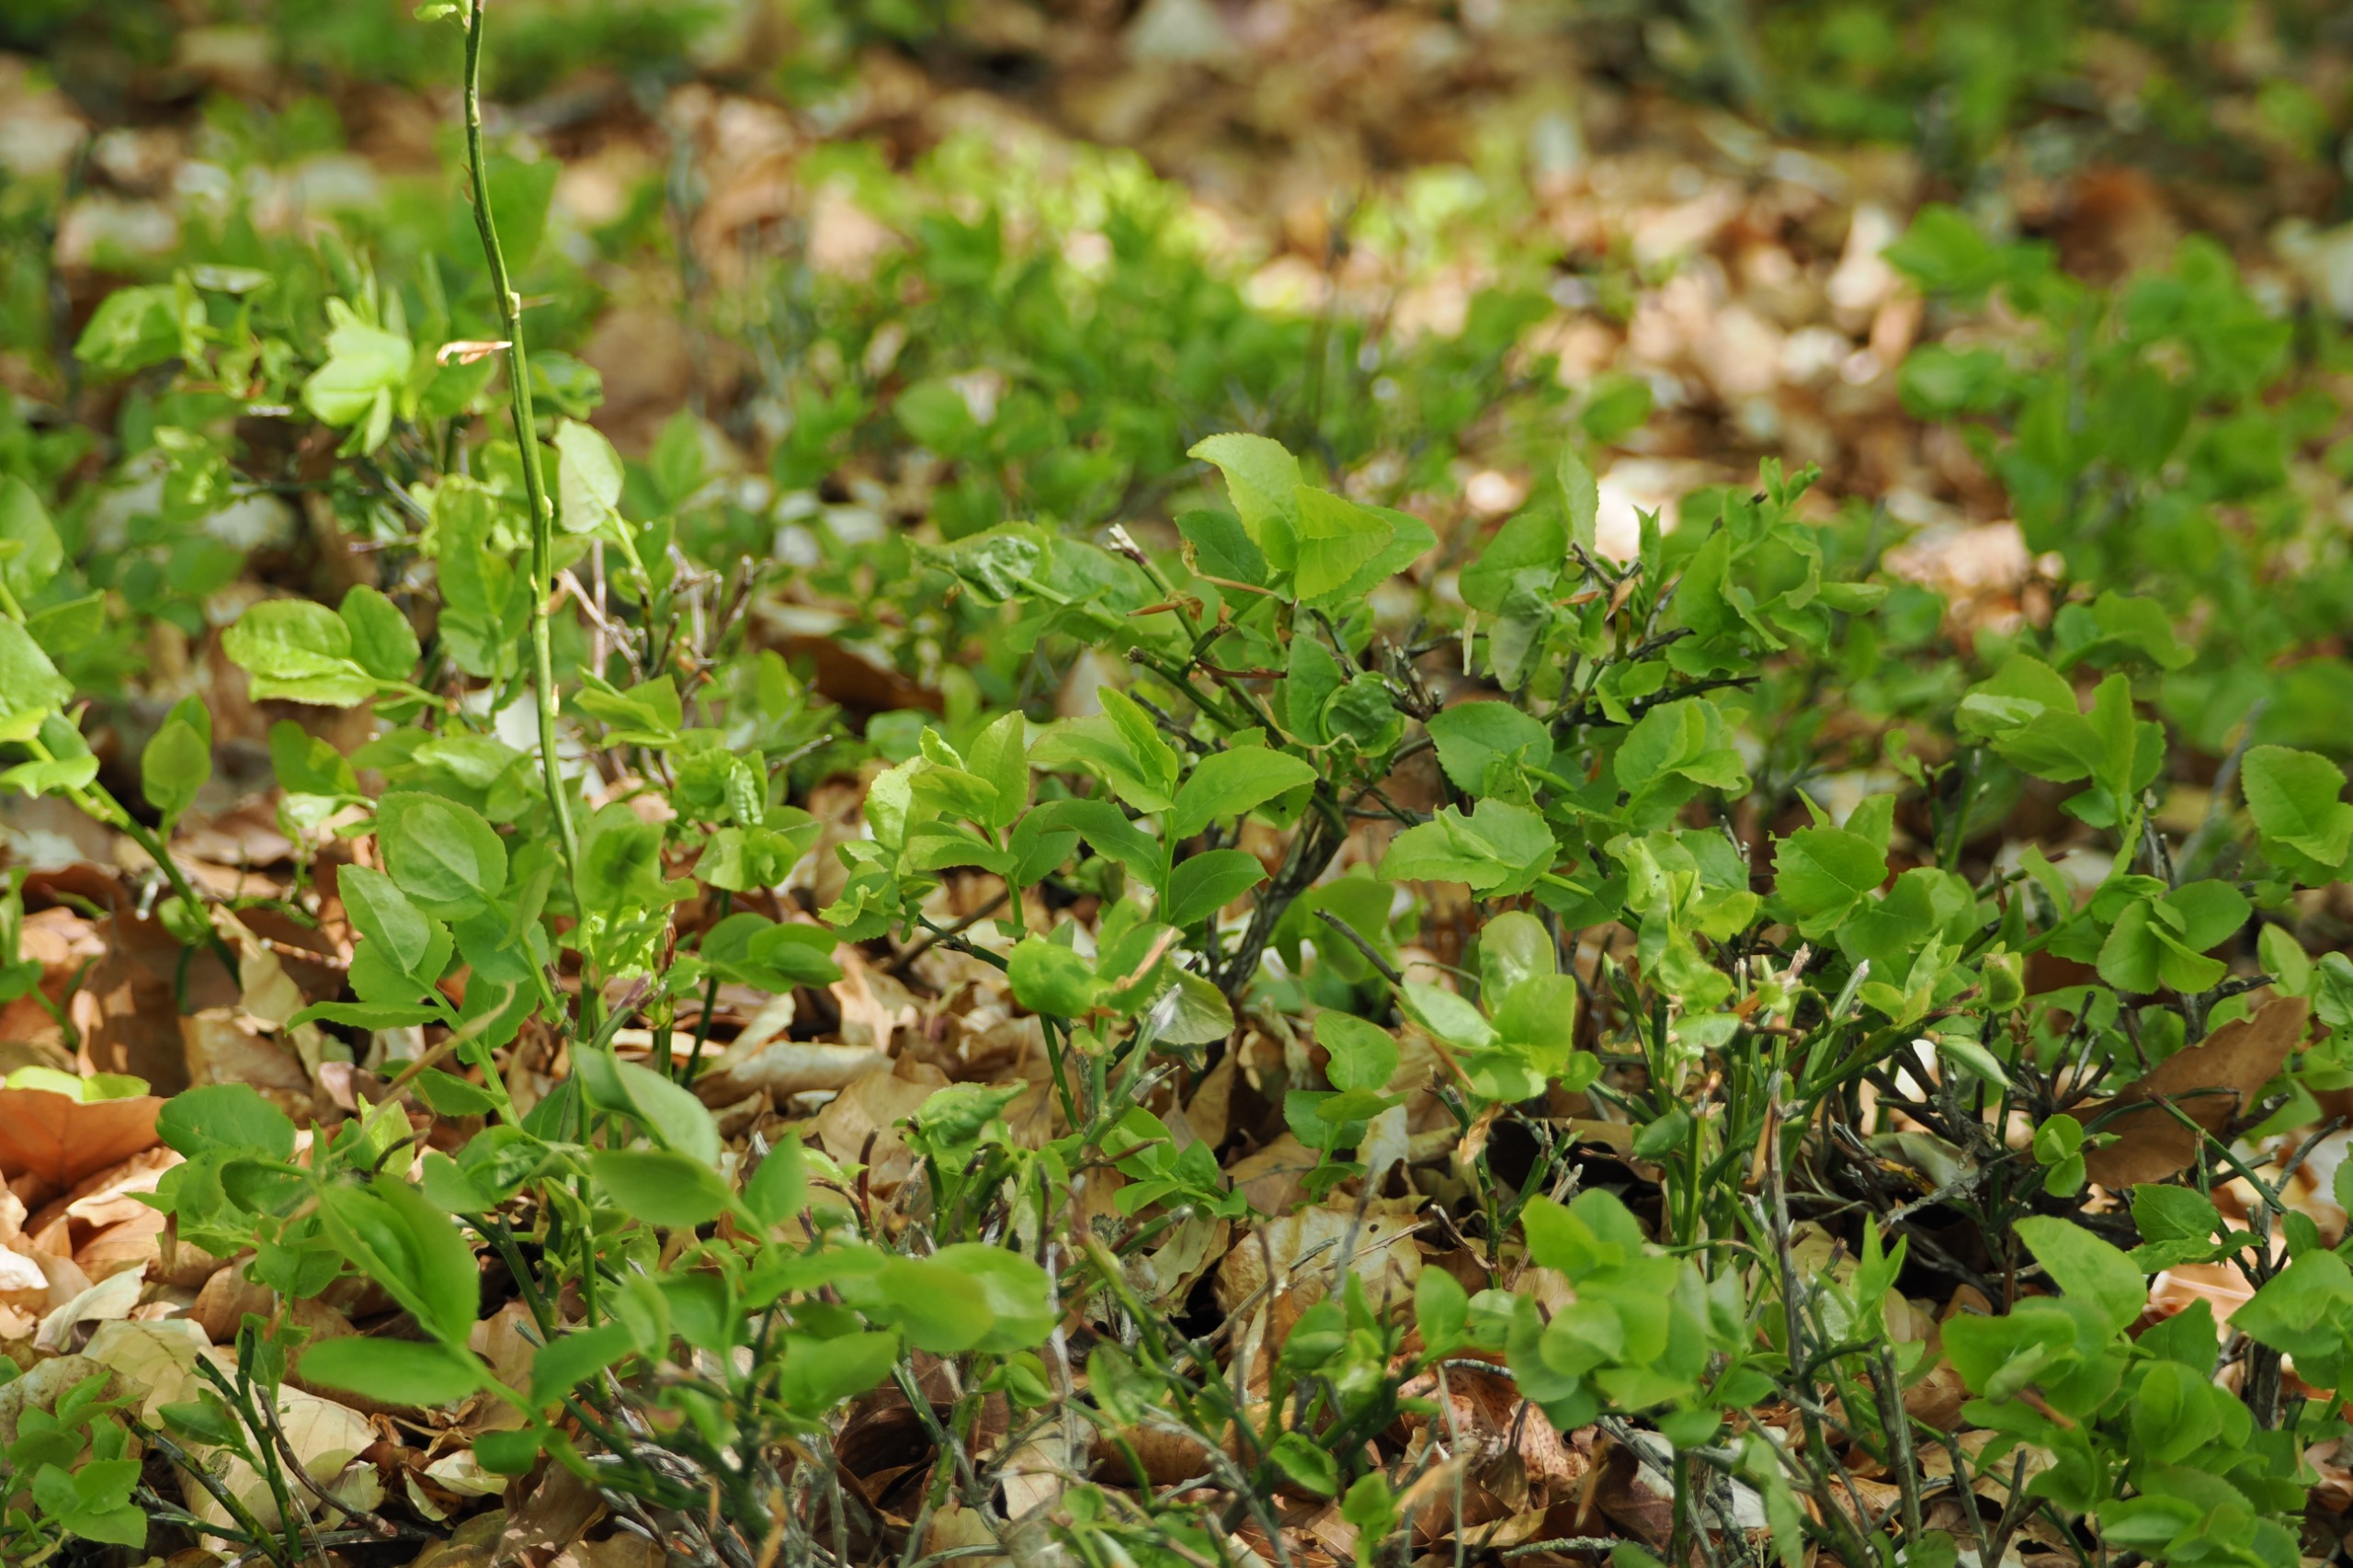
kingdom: Plantae
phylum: Tracheophyta
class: Magnoliopsida
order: Ericales
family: Ericaceae
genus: Vaccinium
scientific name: Vaccinium myrtillus
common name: Blåbær
